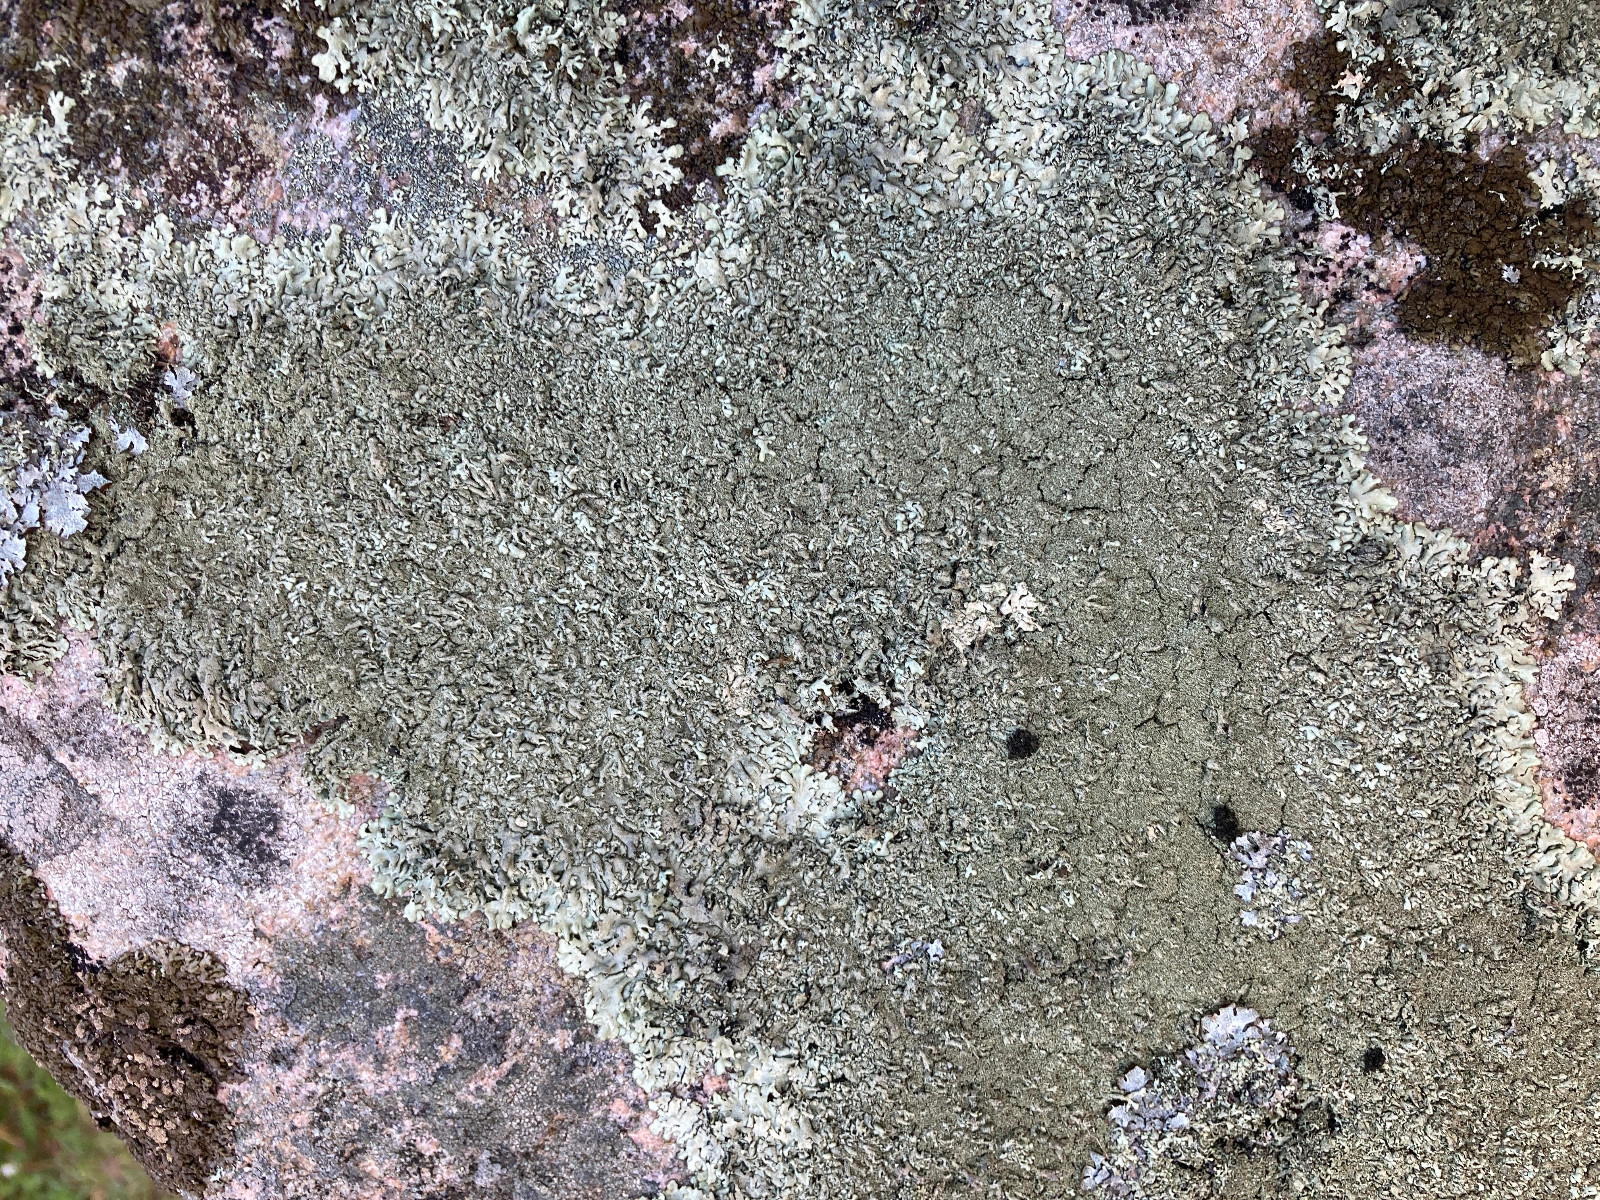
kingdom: Fungi
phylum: Ascomycota
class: Lecanoromycetes
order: Lecanorales
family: Parmeliaceae
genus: Xanthoparmelia
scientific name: Xanthoparmelia
